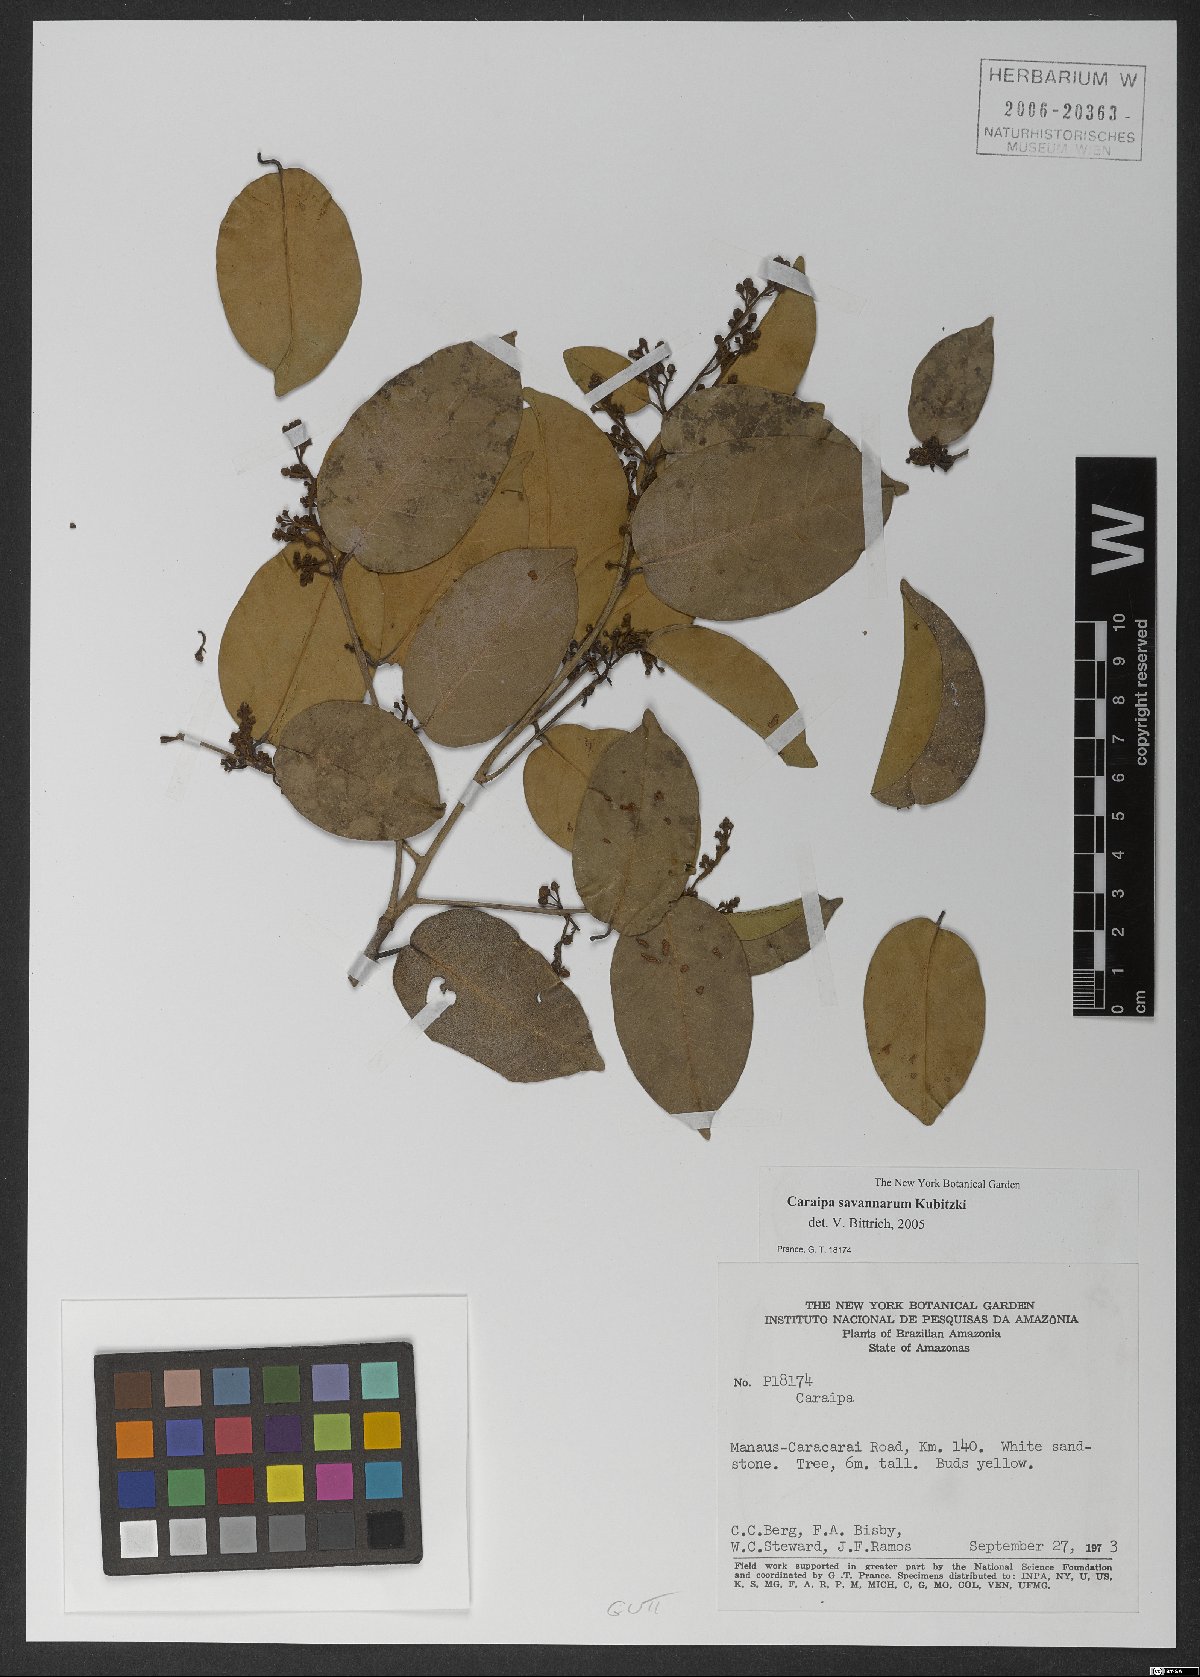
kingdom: Plantae
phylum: Tracheophyta
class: Magnoliopsida
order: Malpighiales
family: Calophyllaceae
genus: Caraipa
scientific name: Caraipa savannarum
